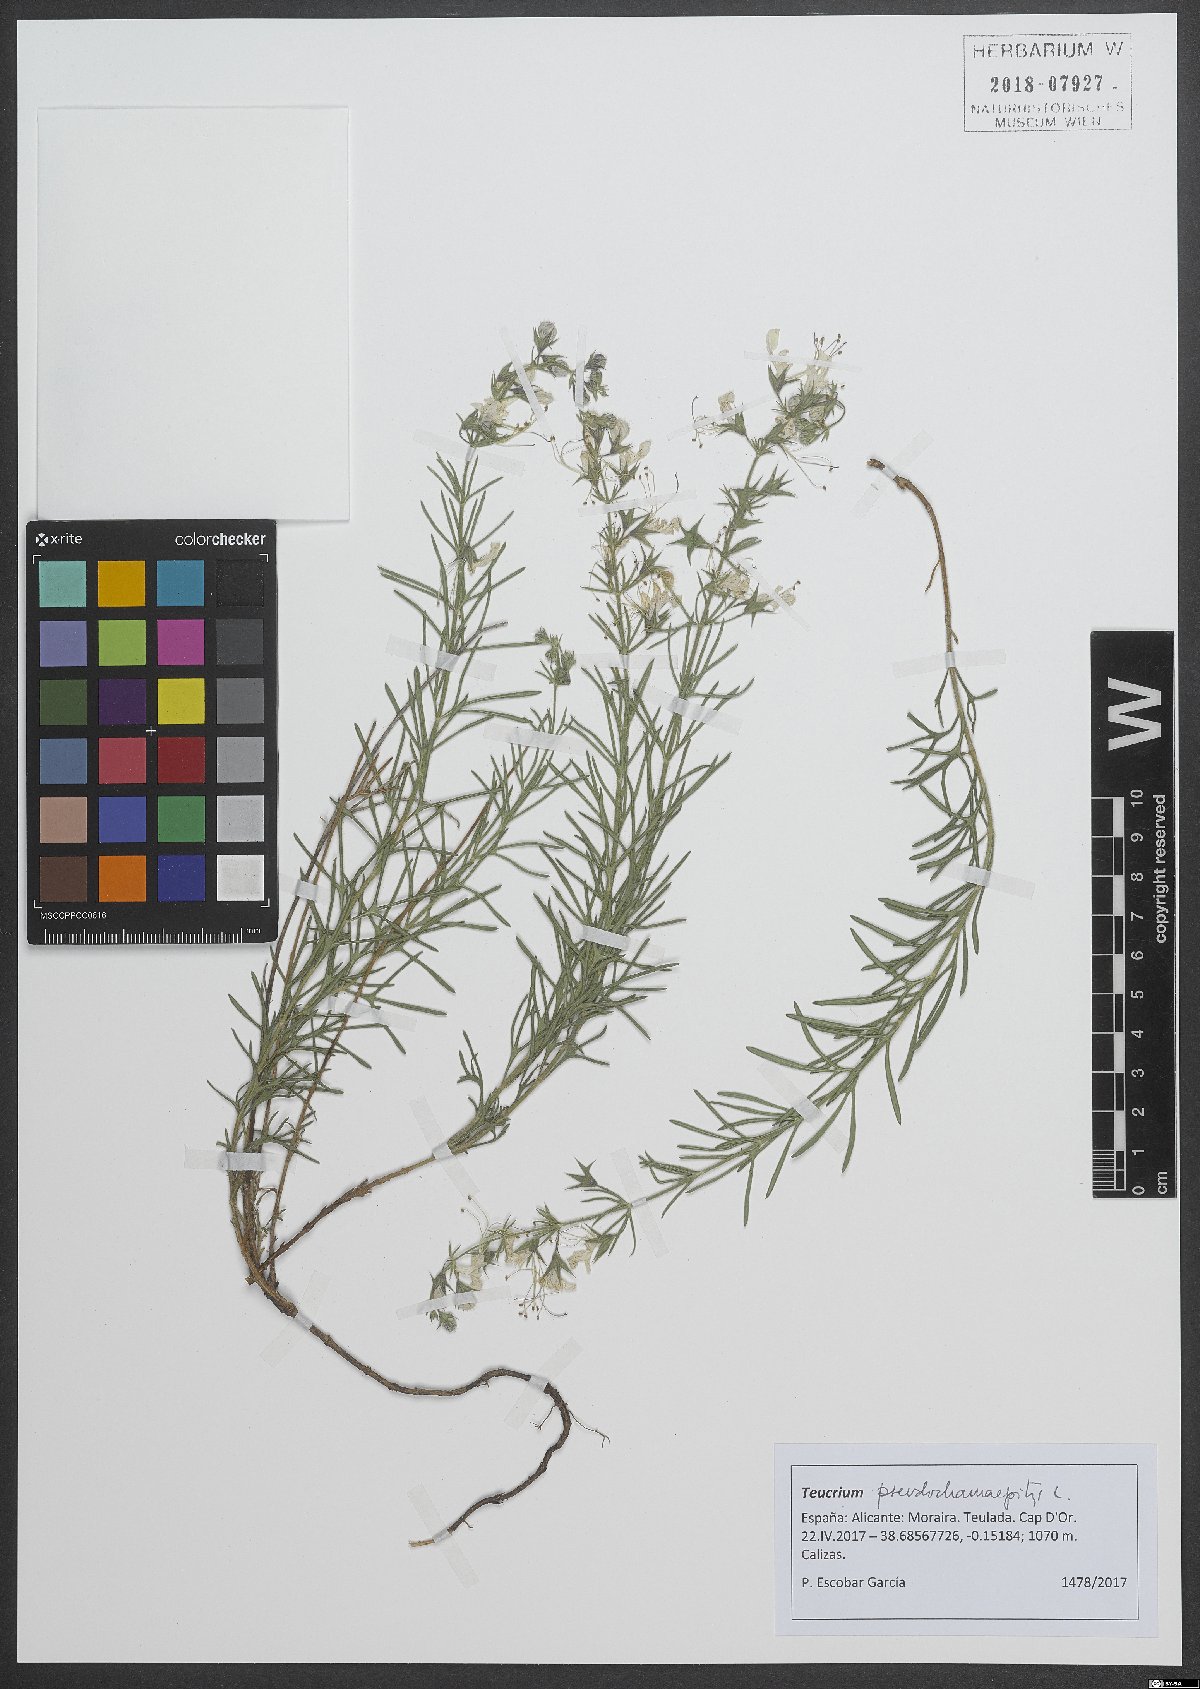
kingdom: Plantae
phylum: Tracheophyta
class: Magnoliopsida
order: Lamiales
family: Lamiaceae
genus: Teucrium
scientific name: Teucrium pseudochamaepitys
